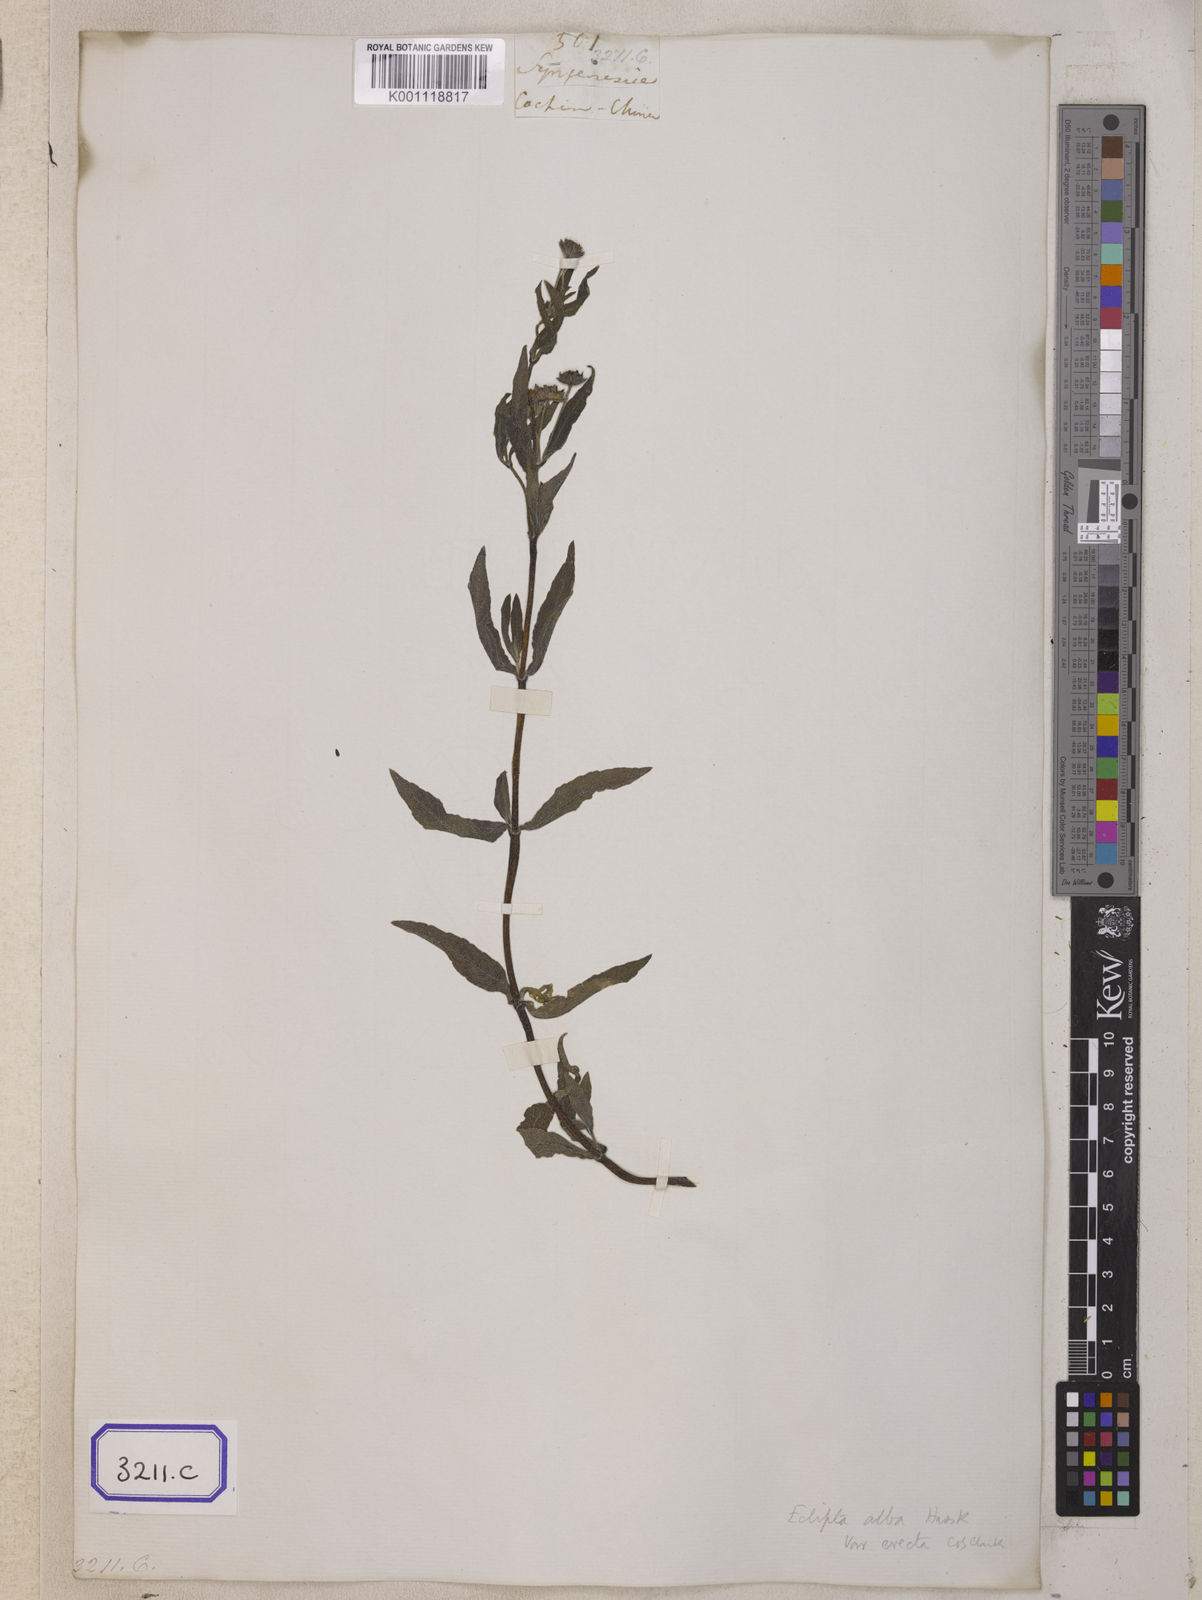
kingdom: Plantae
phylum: Tracheophyta
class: Magnoliopsida
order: Asterales
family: Asteraceae
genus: Eclipta
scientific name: Eclipta alba
